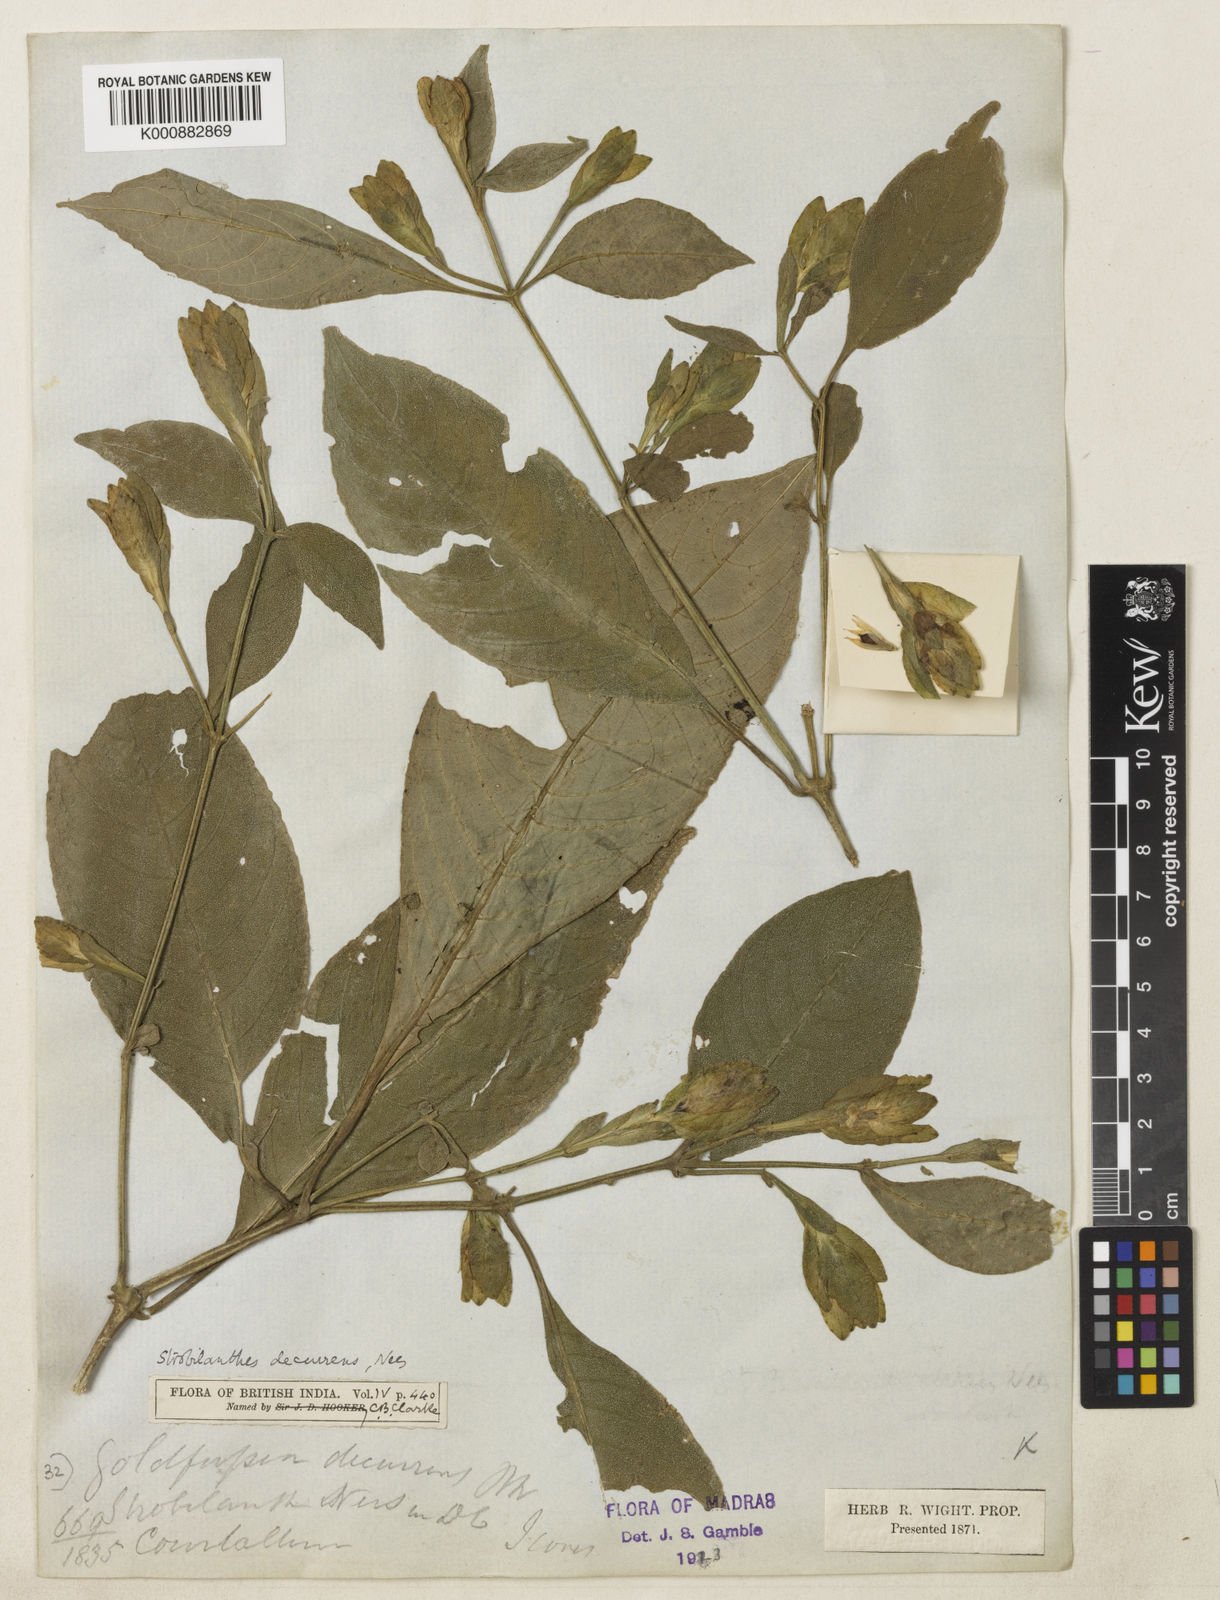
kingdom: Plantae
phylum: Tracheophyta
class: Magnoliopsida
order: Lamiales
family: Acanthaceae
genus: Strobilanthes
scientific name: Strobilanthes decurrens
